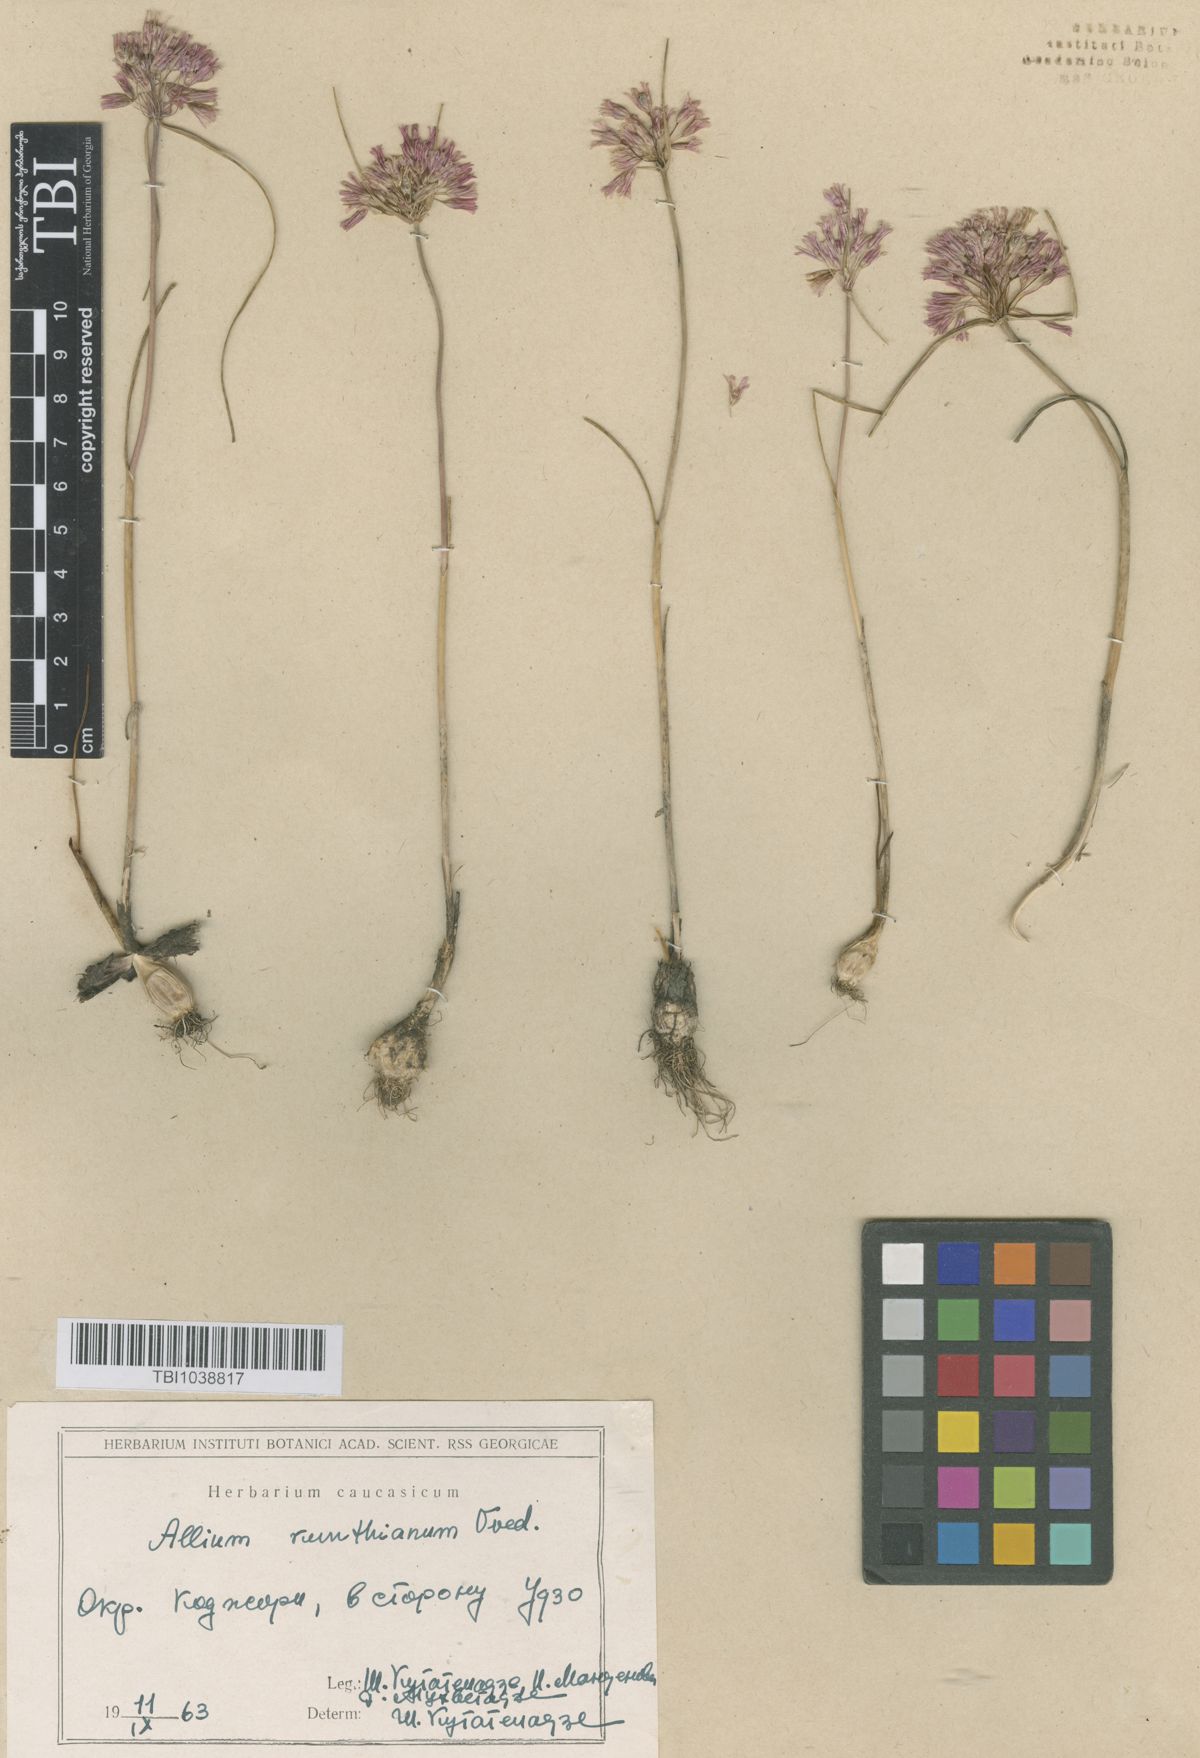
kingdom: Plantae
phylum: Tracheophyta
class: Liliopsida
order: Asparagales
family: Amaryllidaceae
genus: Allium
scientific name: Allium kunthianum
